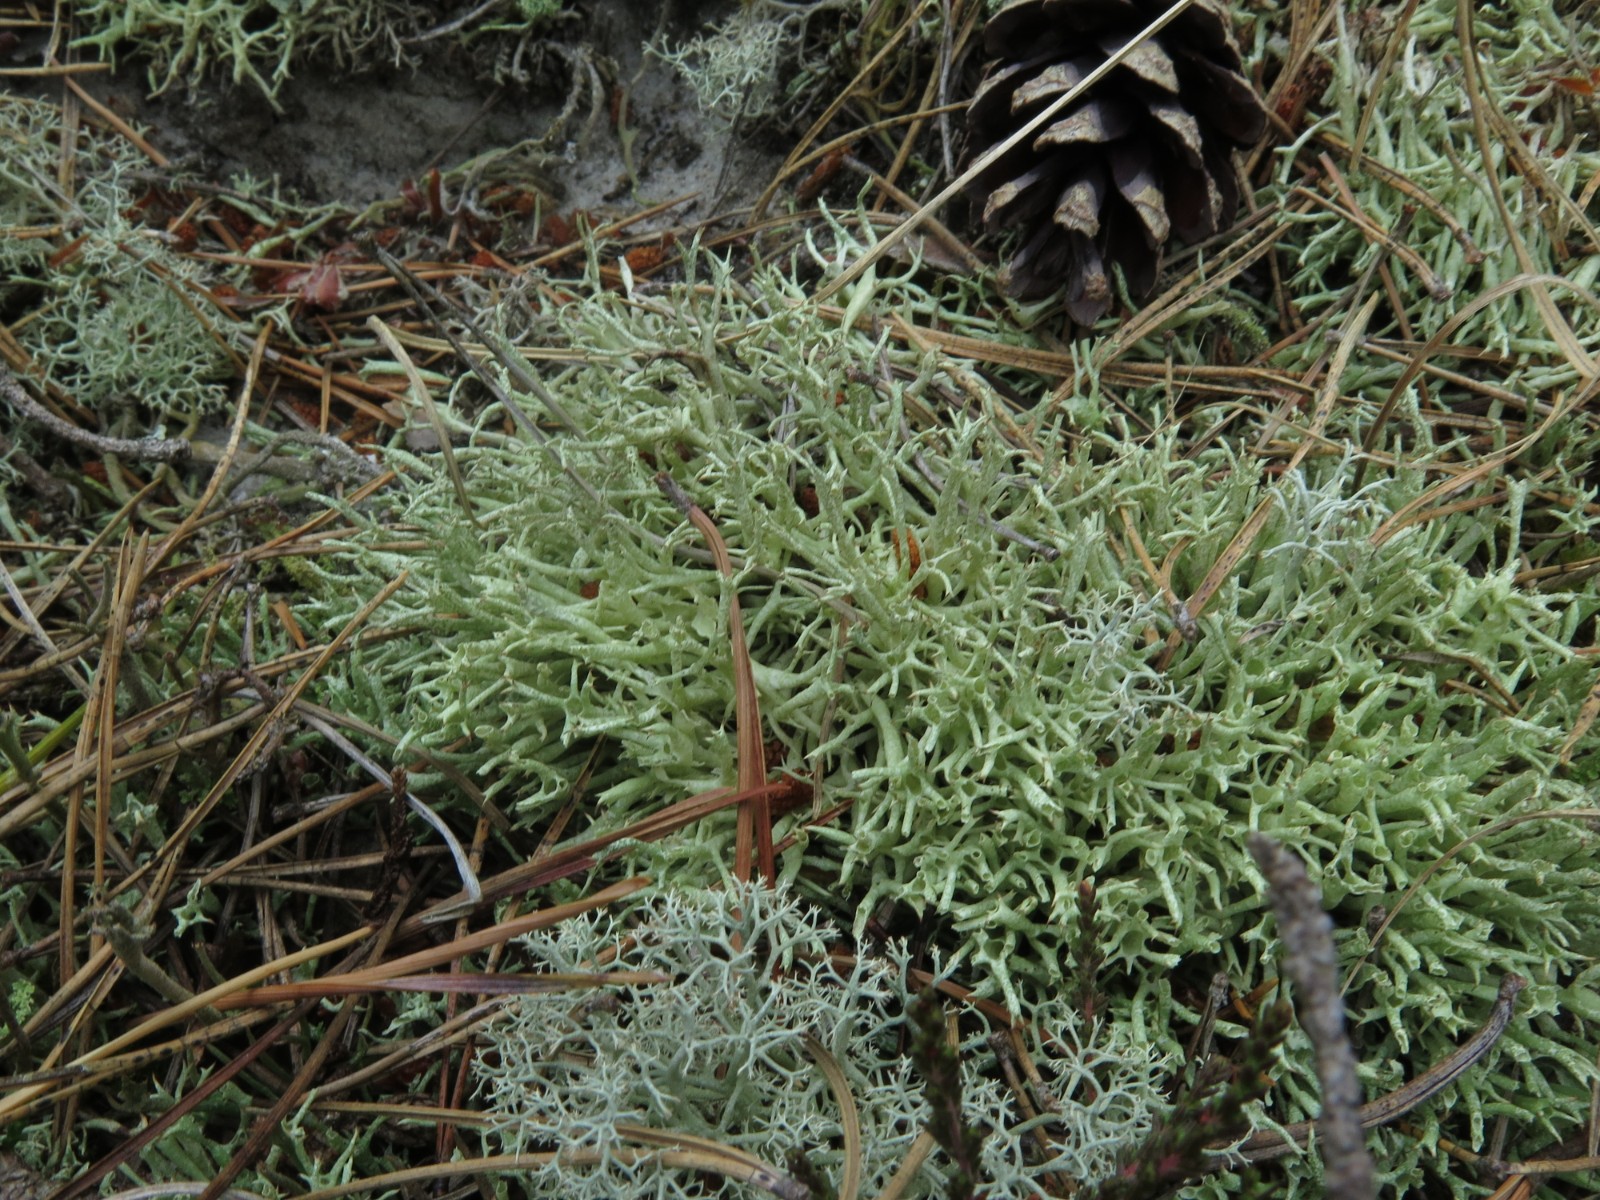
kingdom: Fungi
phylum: Ascomycota
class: Lecanoromycetes
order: Lecanorales
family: Cladoniaceae
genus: Cladonia
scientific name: Cladonia uncialis
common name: pigget bægerlav
